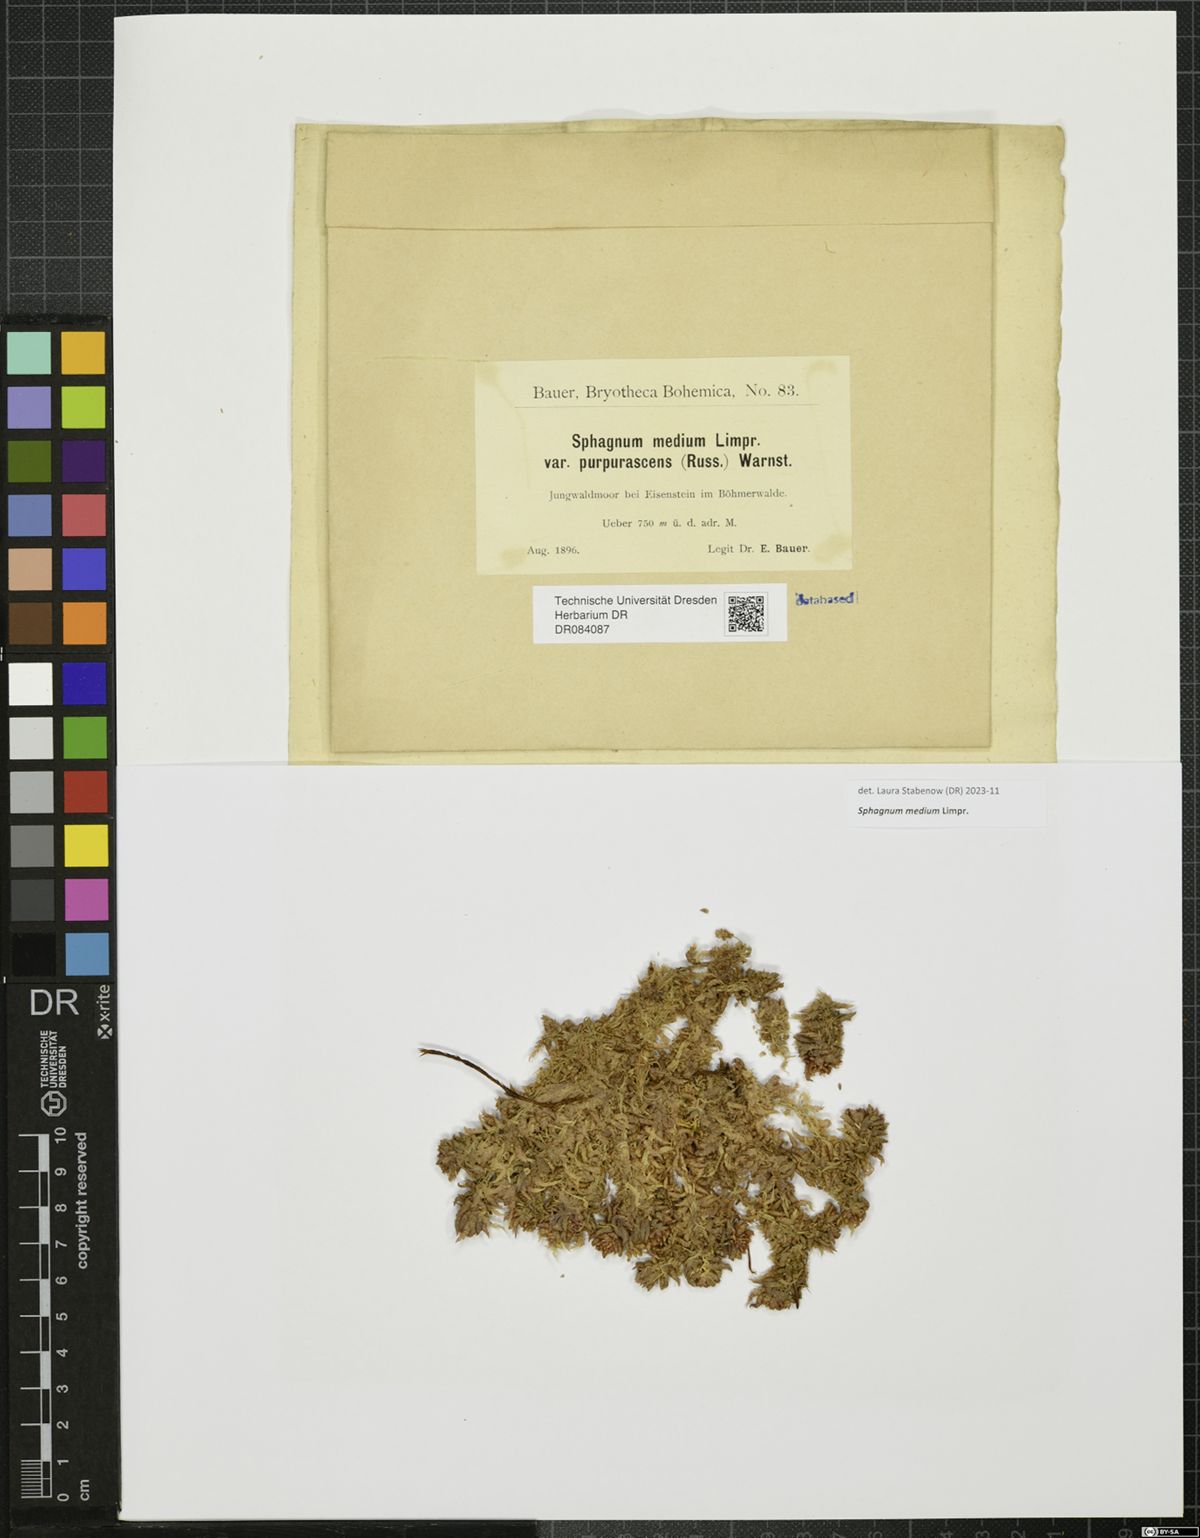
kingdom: Plantae
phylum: Bryophyta
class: Sphagnopsida
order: Sphagnales
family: Sphagnaceae
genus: Sphagnum
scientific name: Sphagnum medium
